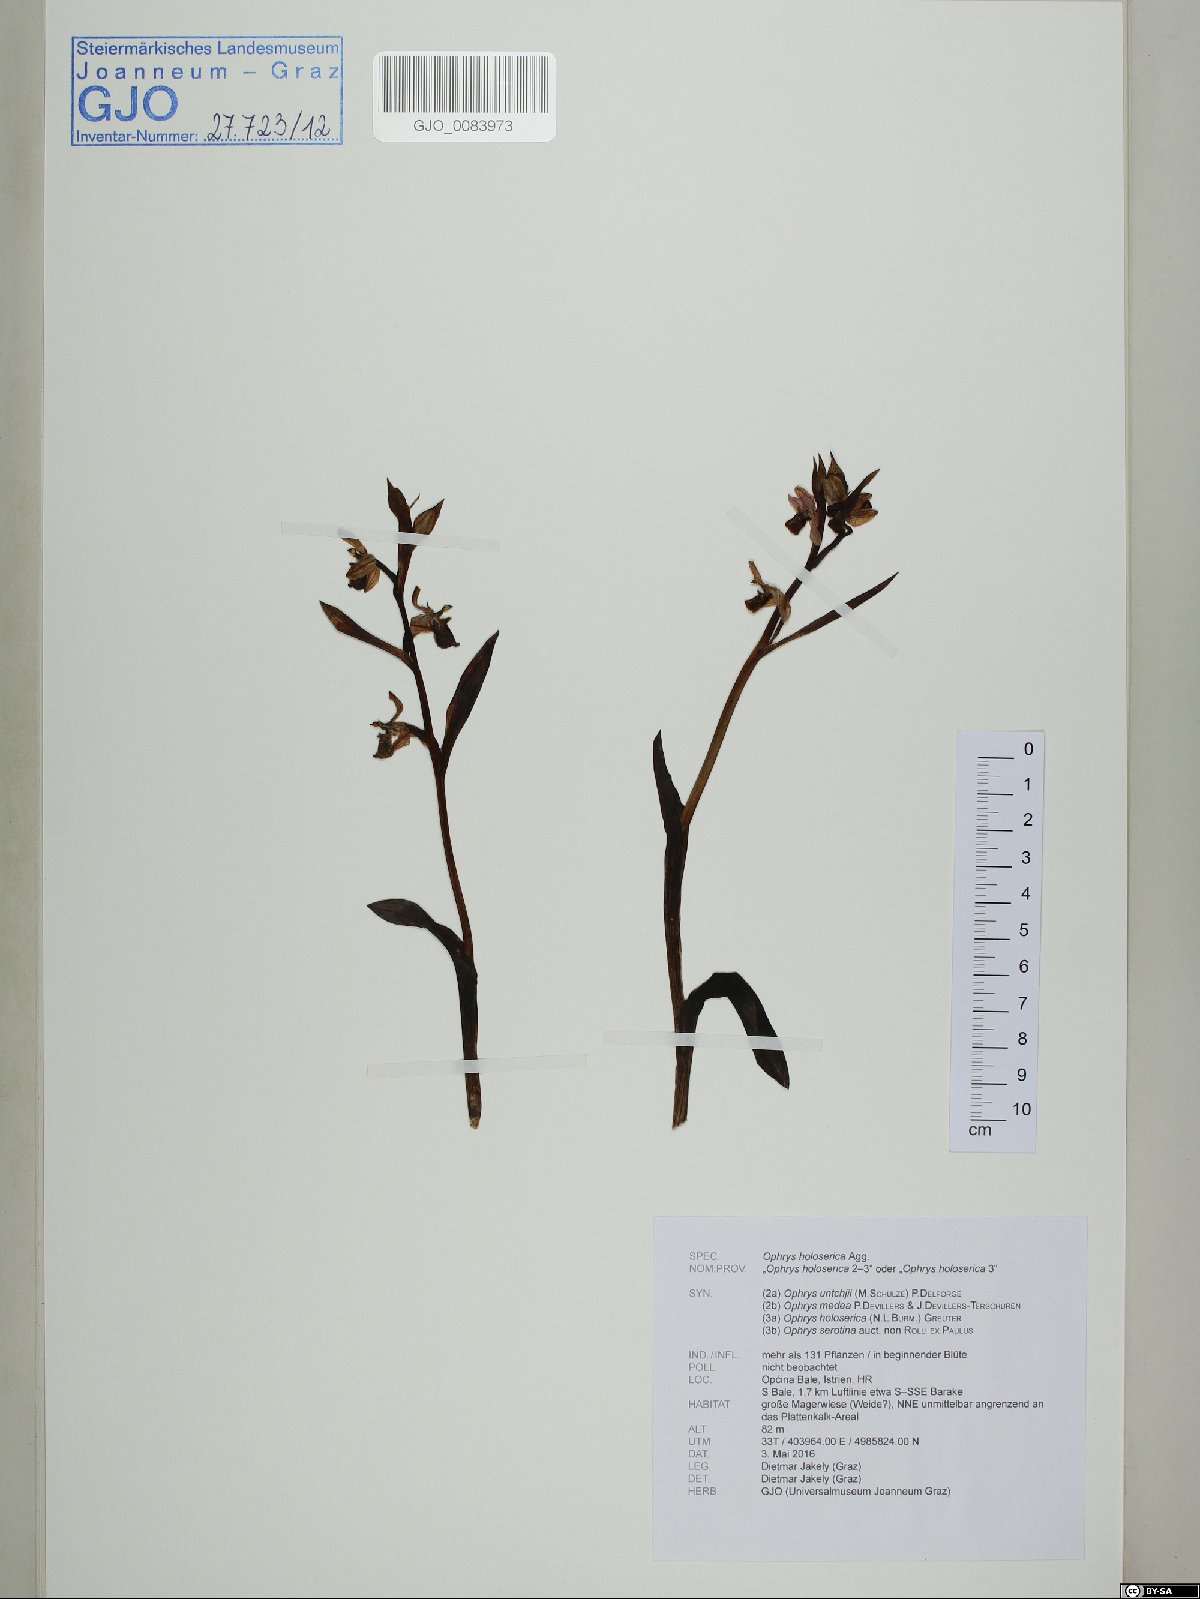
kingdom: Plantae
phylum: Tracheophyta
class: Liliopsida
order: Asparagales
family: Orchidaceae
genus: Ophrys
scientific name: Ophrys holosericea
